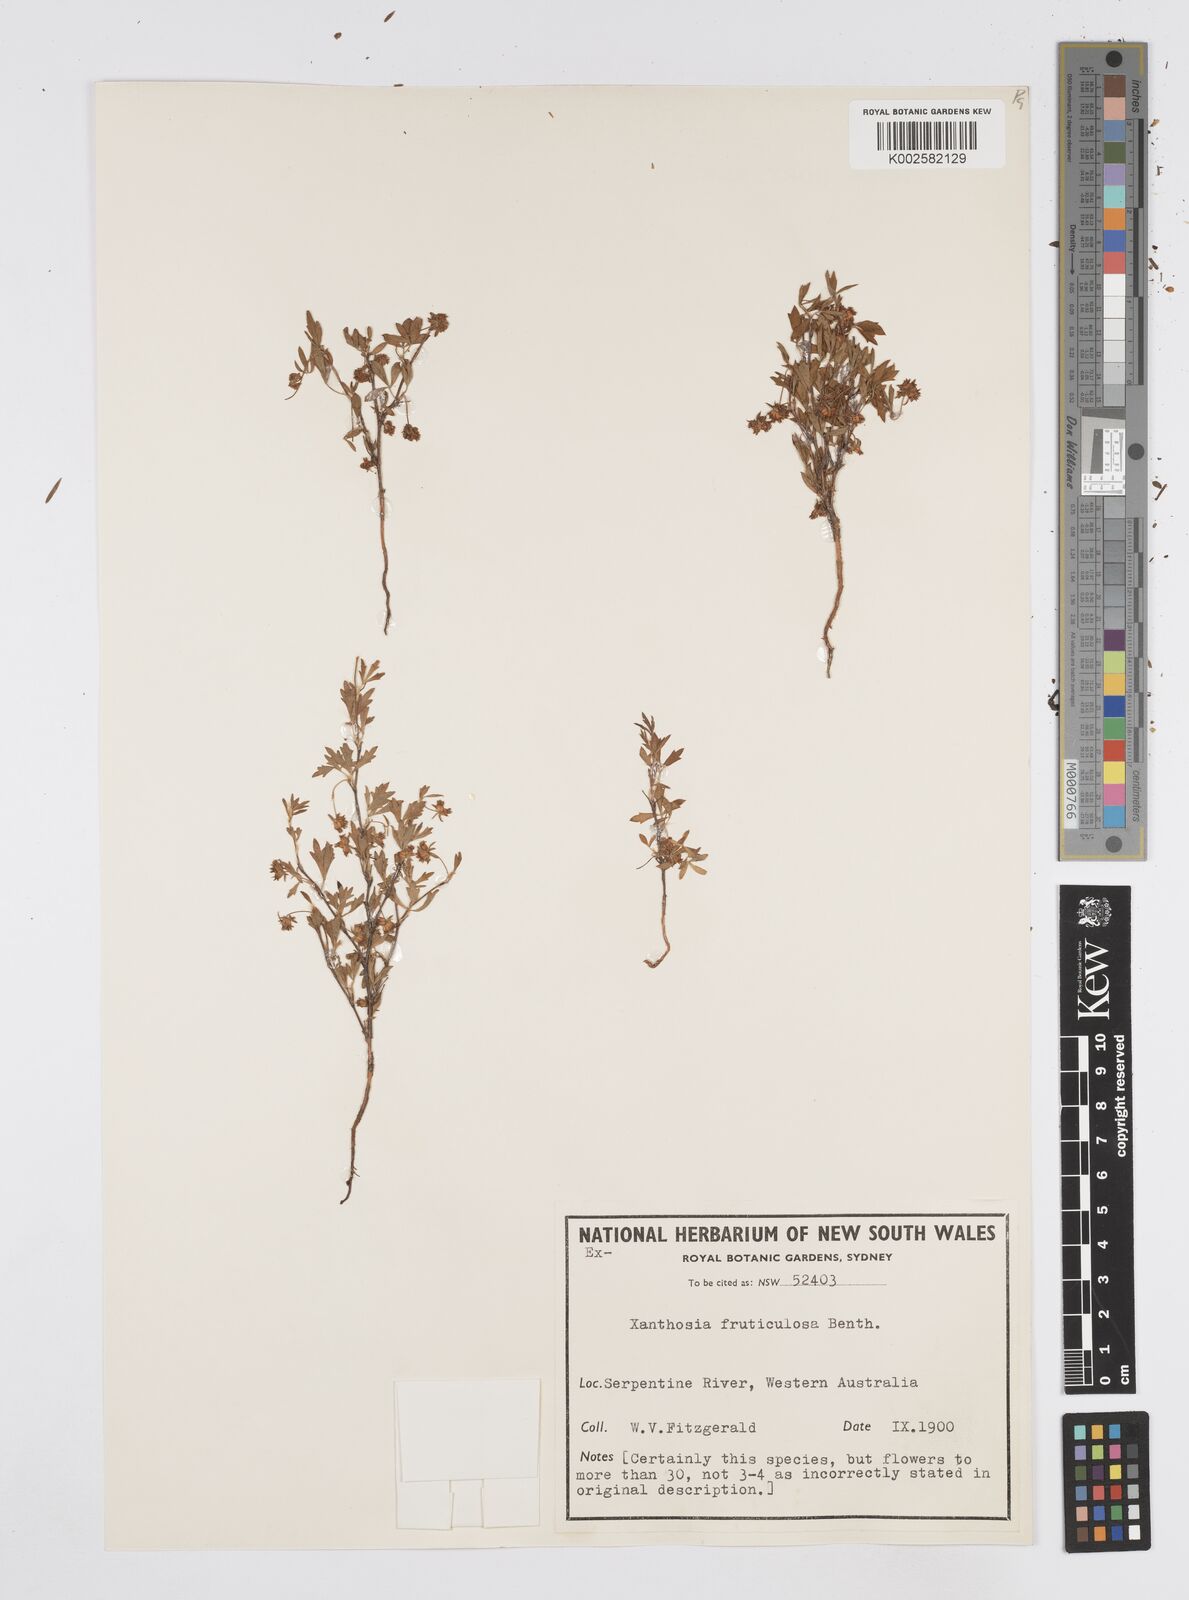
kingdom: Plantae
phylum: Tracheophyta
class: Magnoliopsida
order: Apiales
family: Apiaceae
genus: Xanthosia
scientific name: Xanthosia fruticulosa
